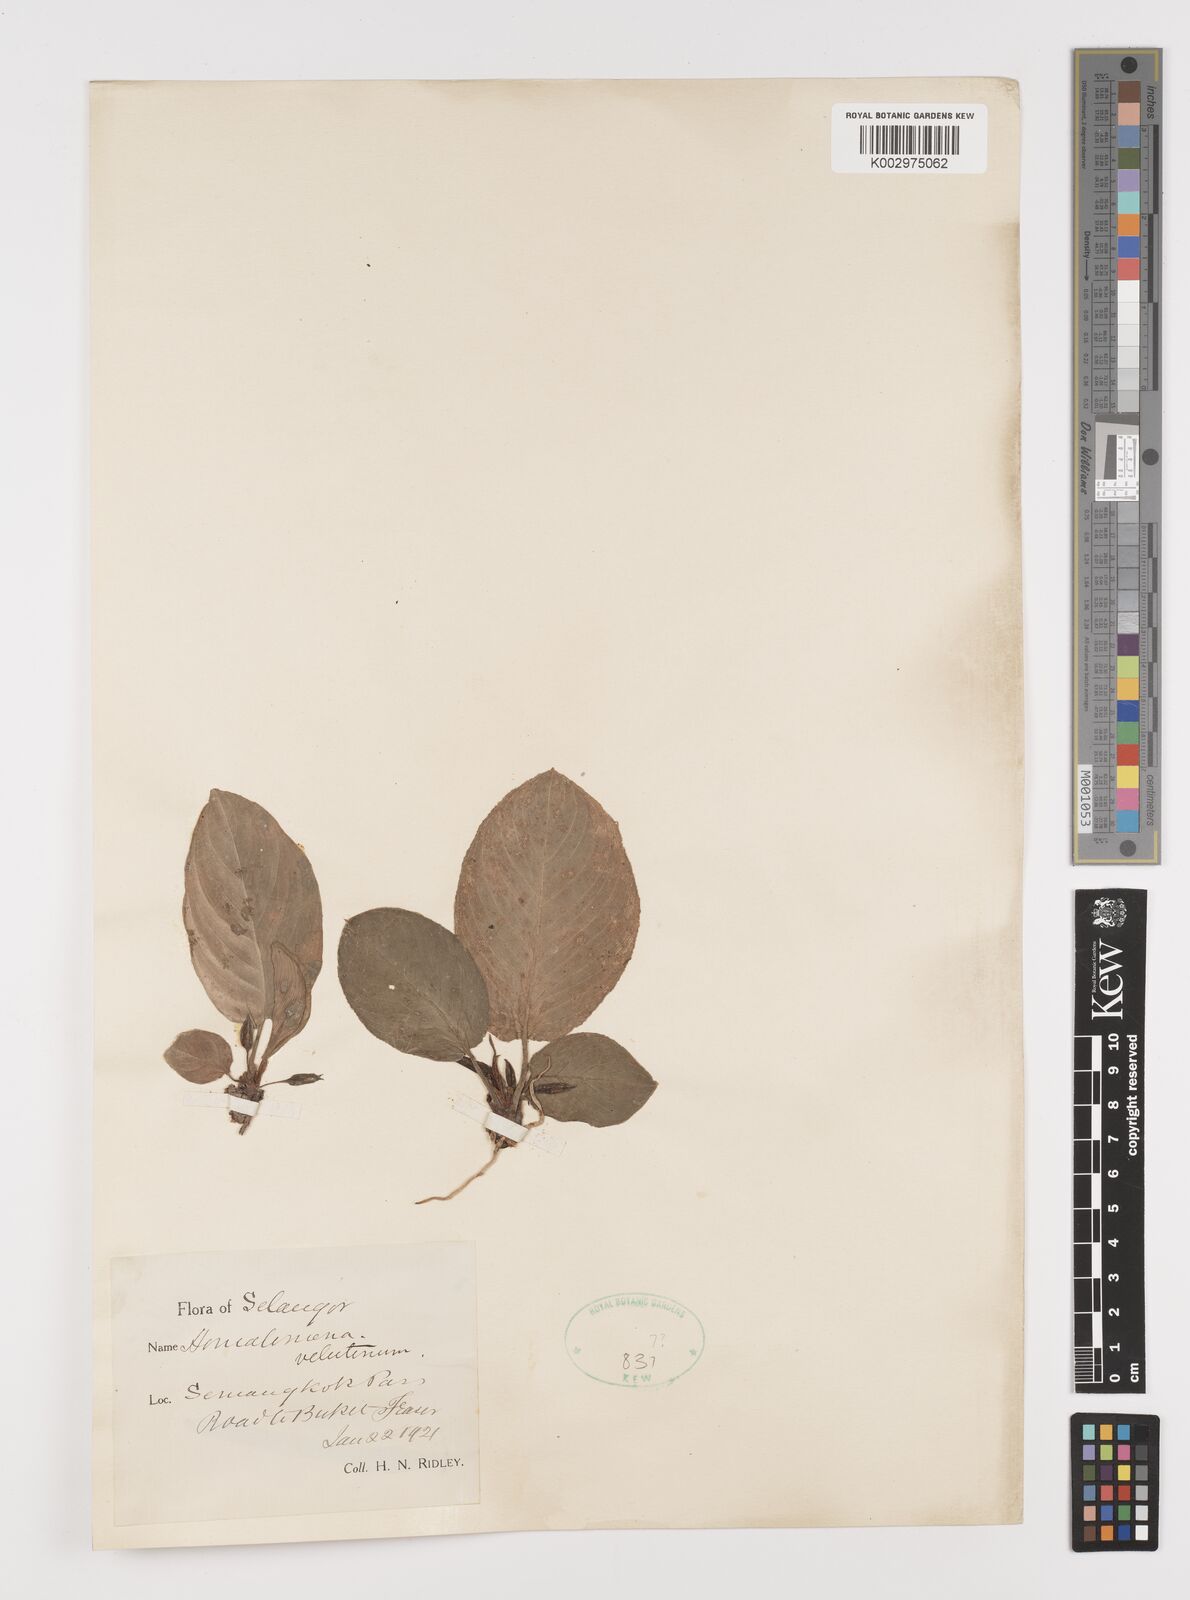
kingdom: Plantae
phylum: Tracheophyta
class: Liliopsida
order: Alismatales
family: Araceae
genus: Homalomena
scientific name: Homalomena humilis
